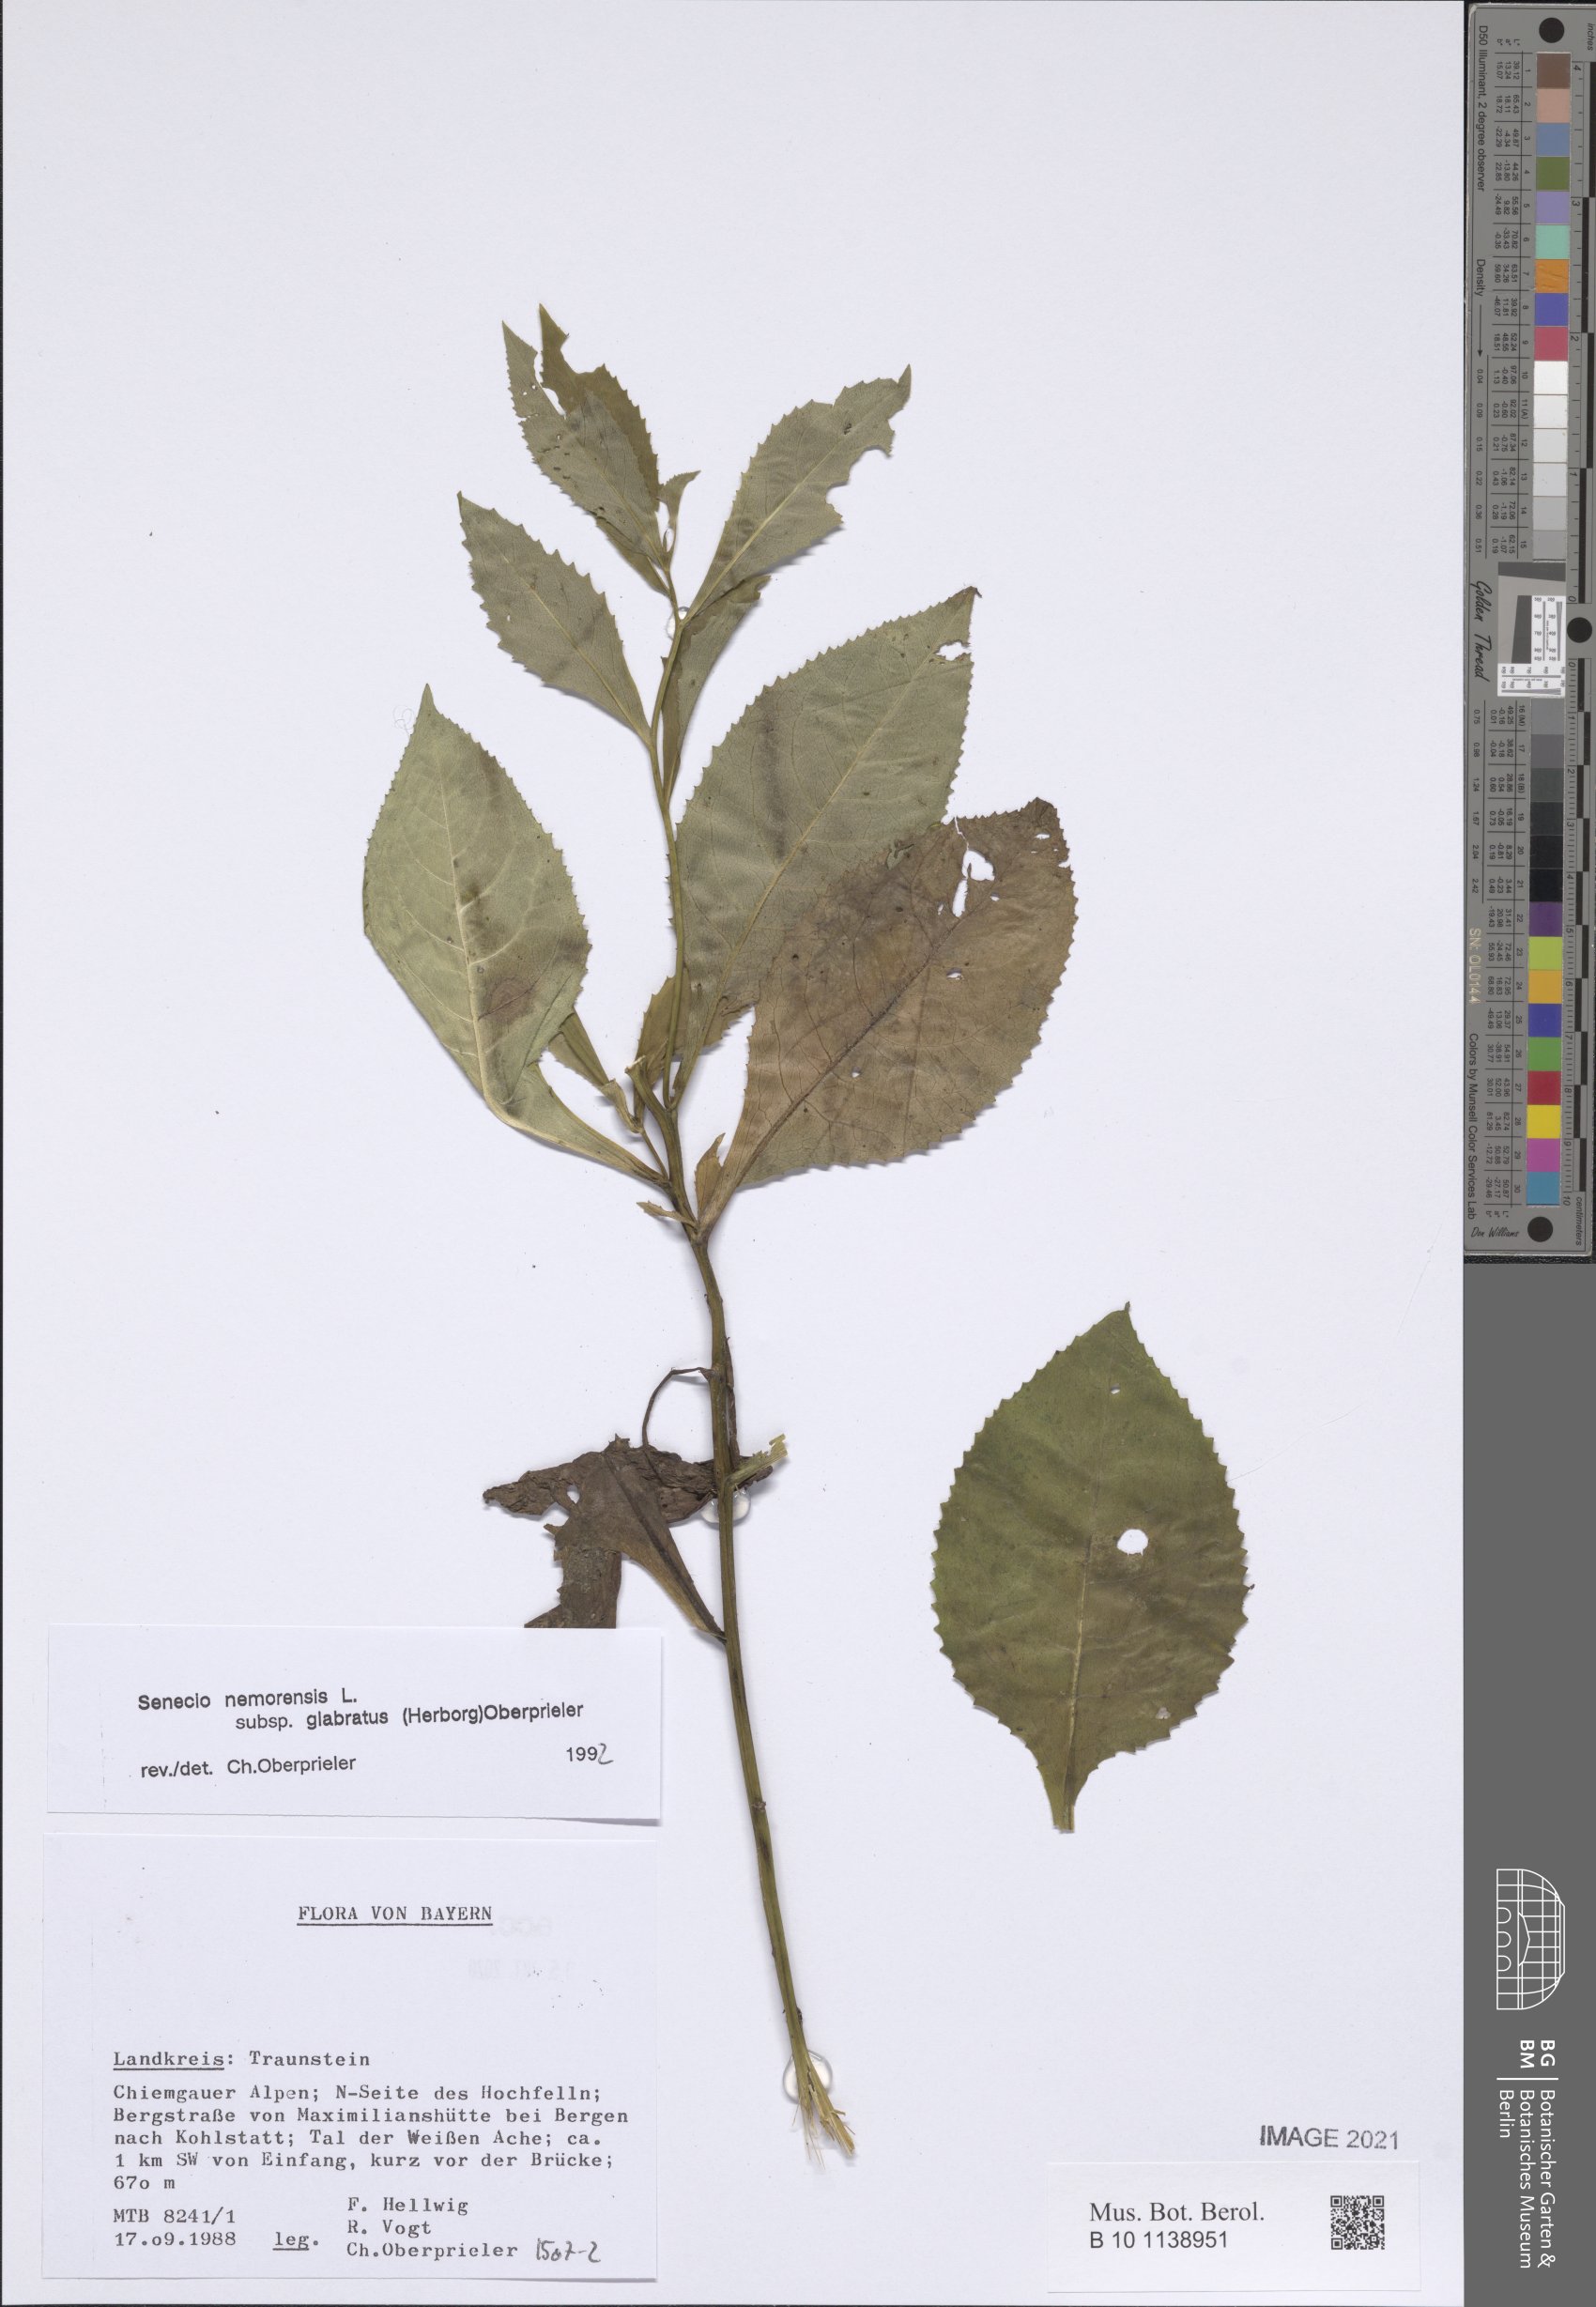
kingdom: Plantae
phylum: Tracheophyta
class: Magnoliopsida
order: Asterales
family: Asteraceae
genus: Senecio
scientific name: Senecio germanicus
